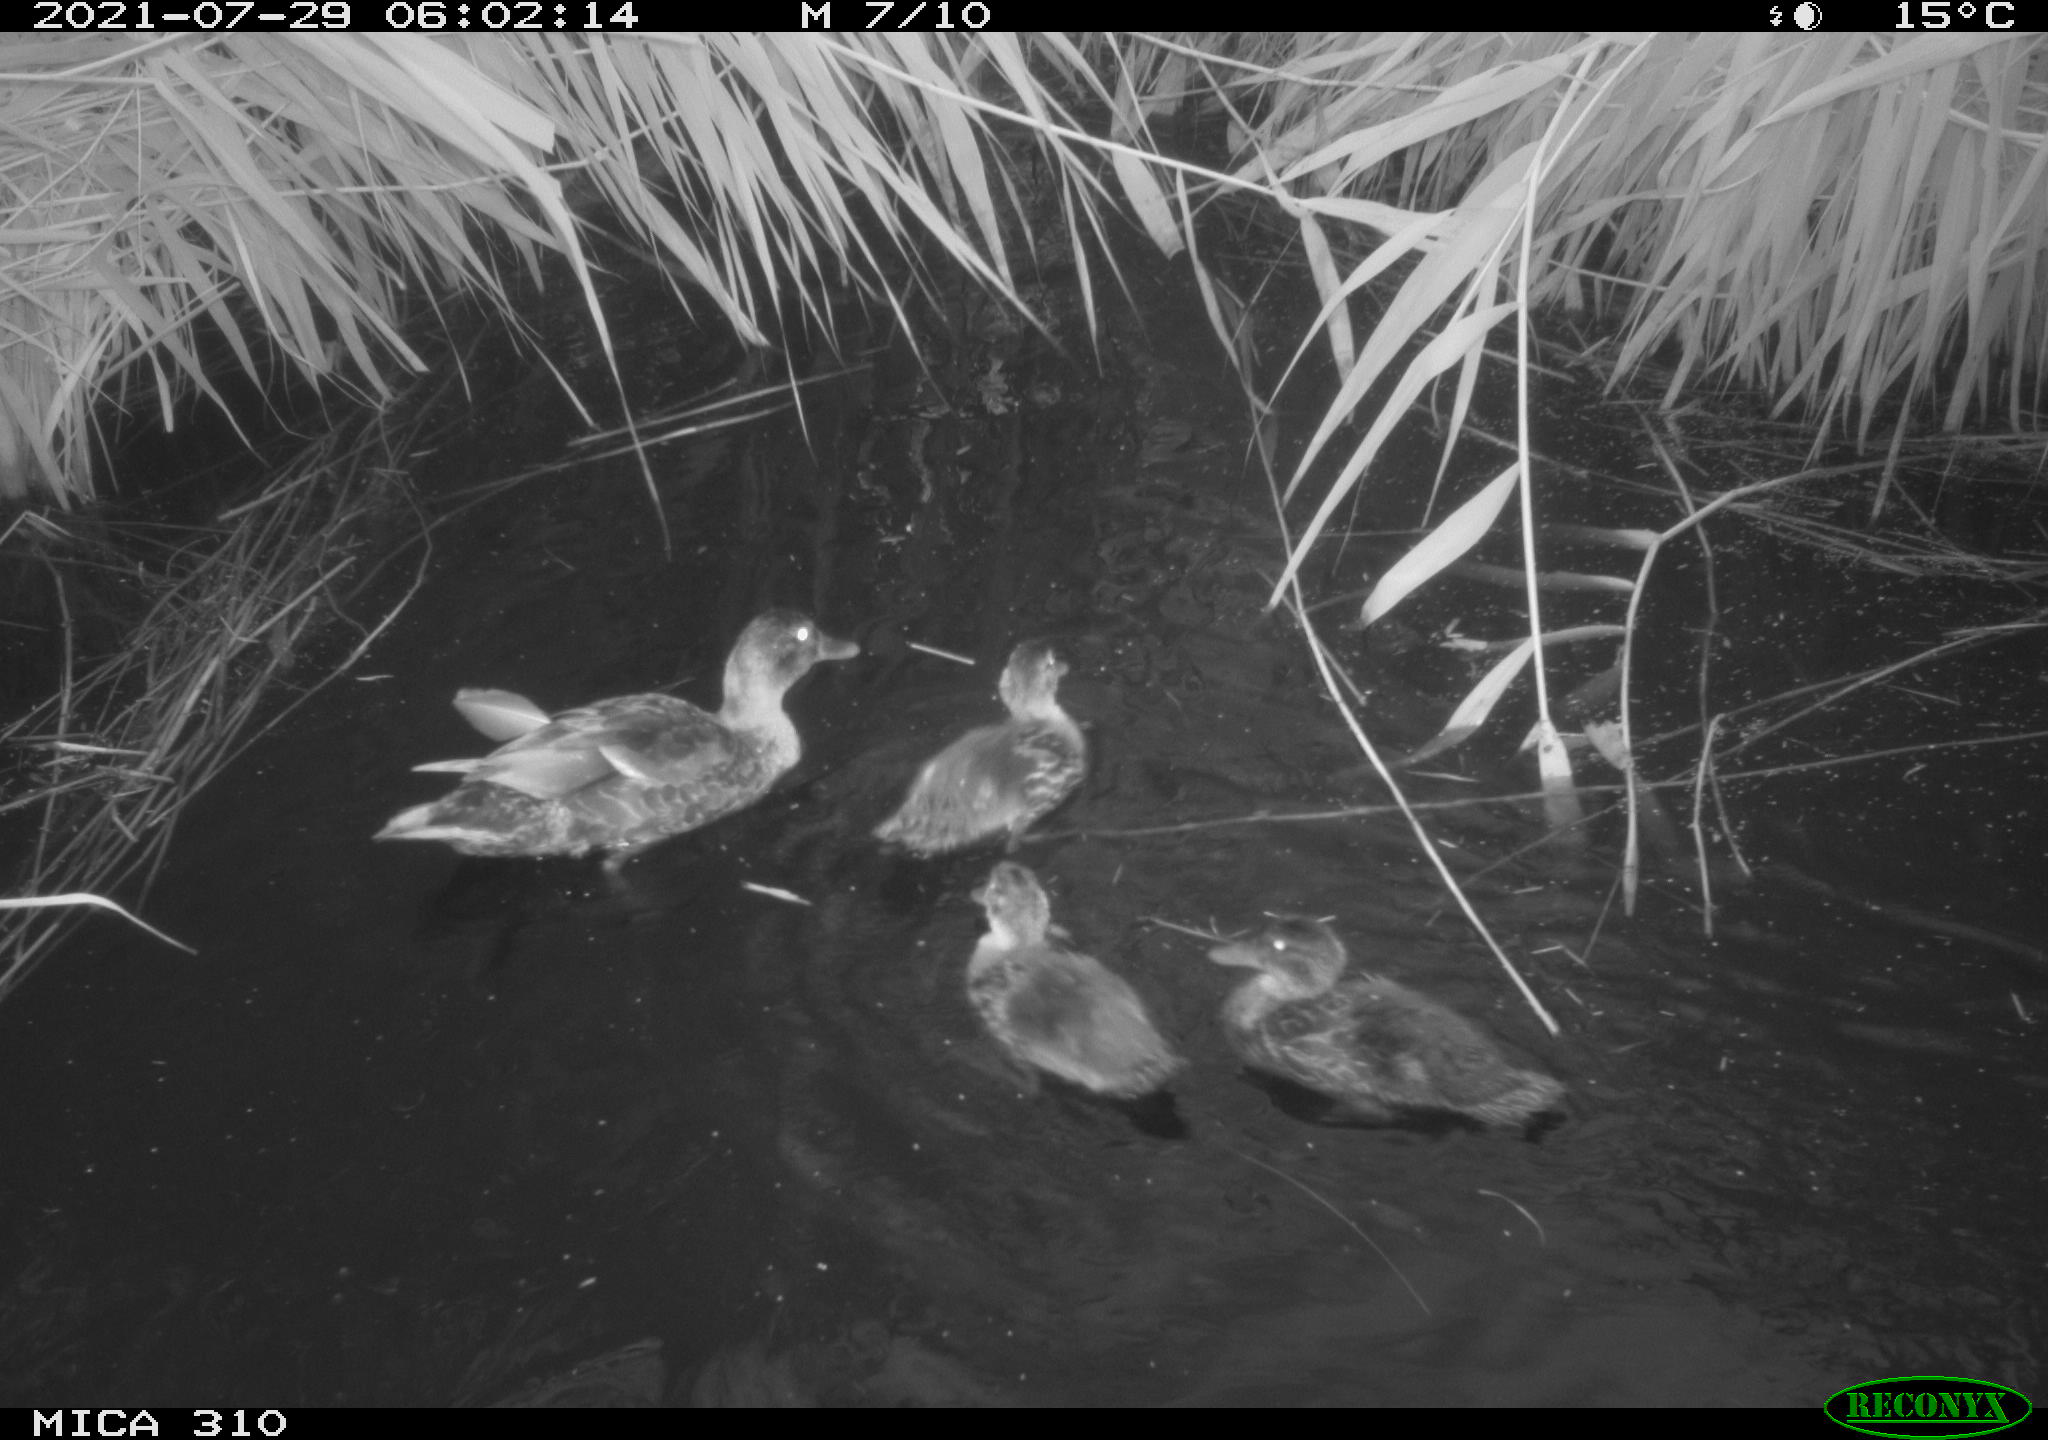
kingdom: Animalia
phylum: Chordata
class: Aves
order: Gruiformes
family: Rallidae
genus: Gallinula
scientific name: Gallinula chloropus
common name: Common moorhen
